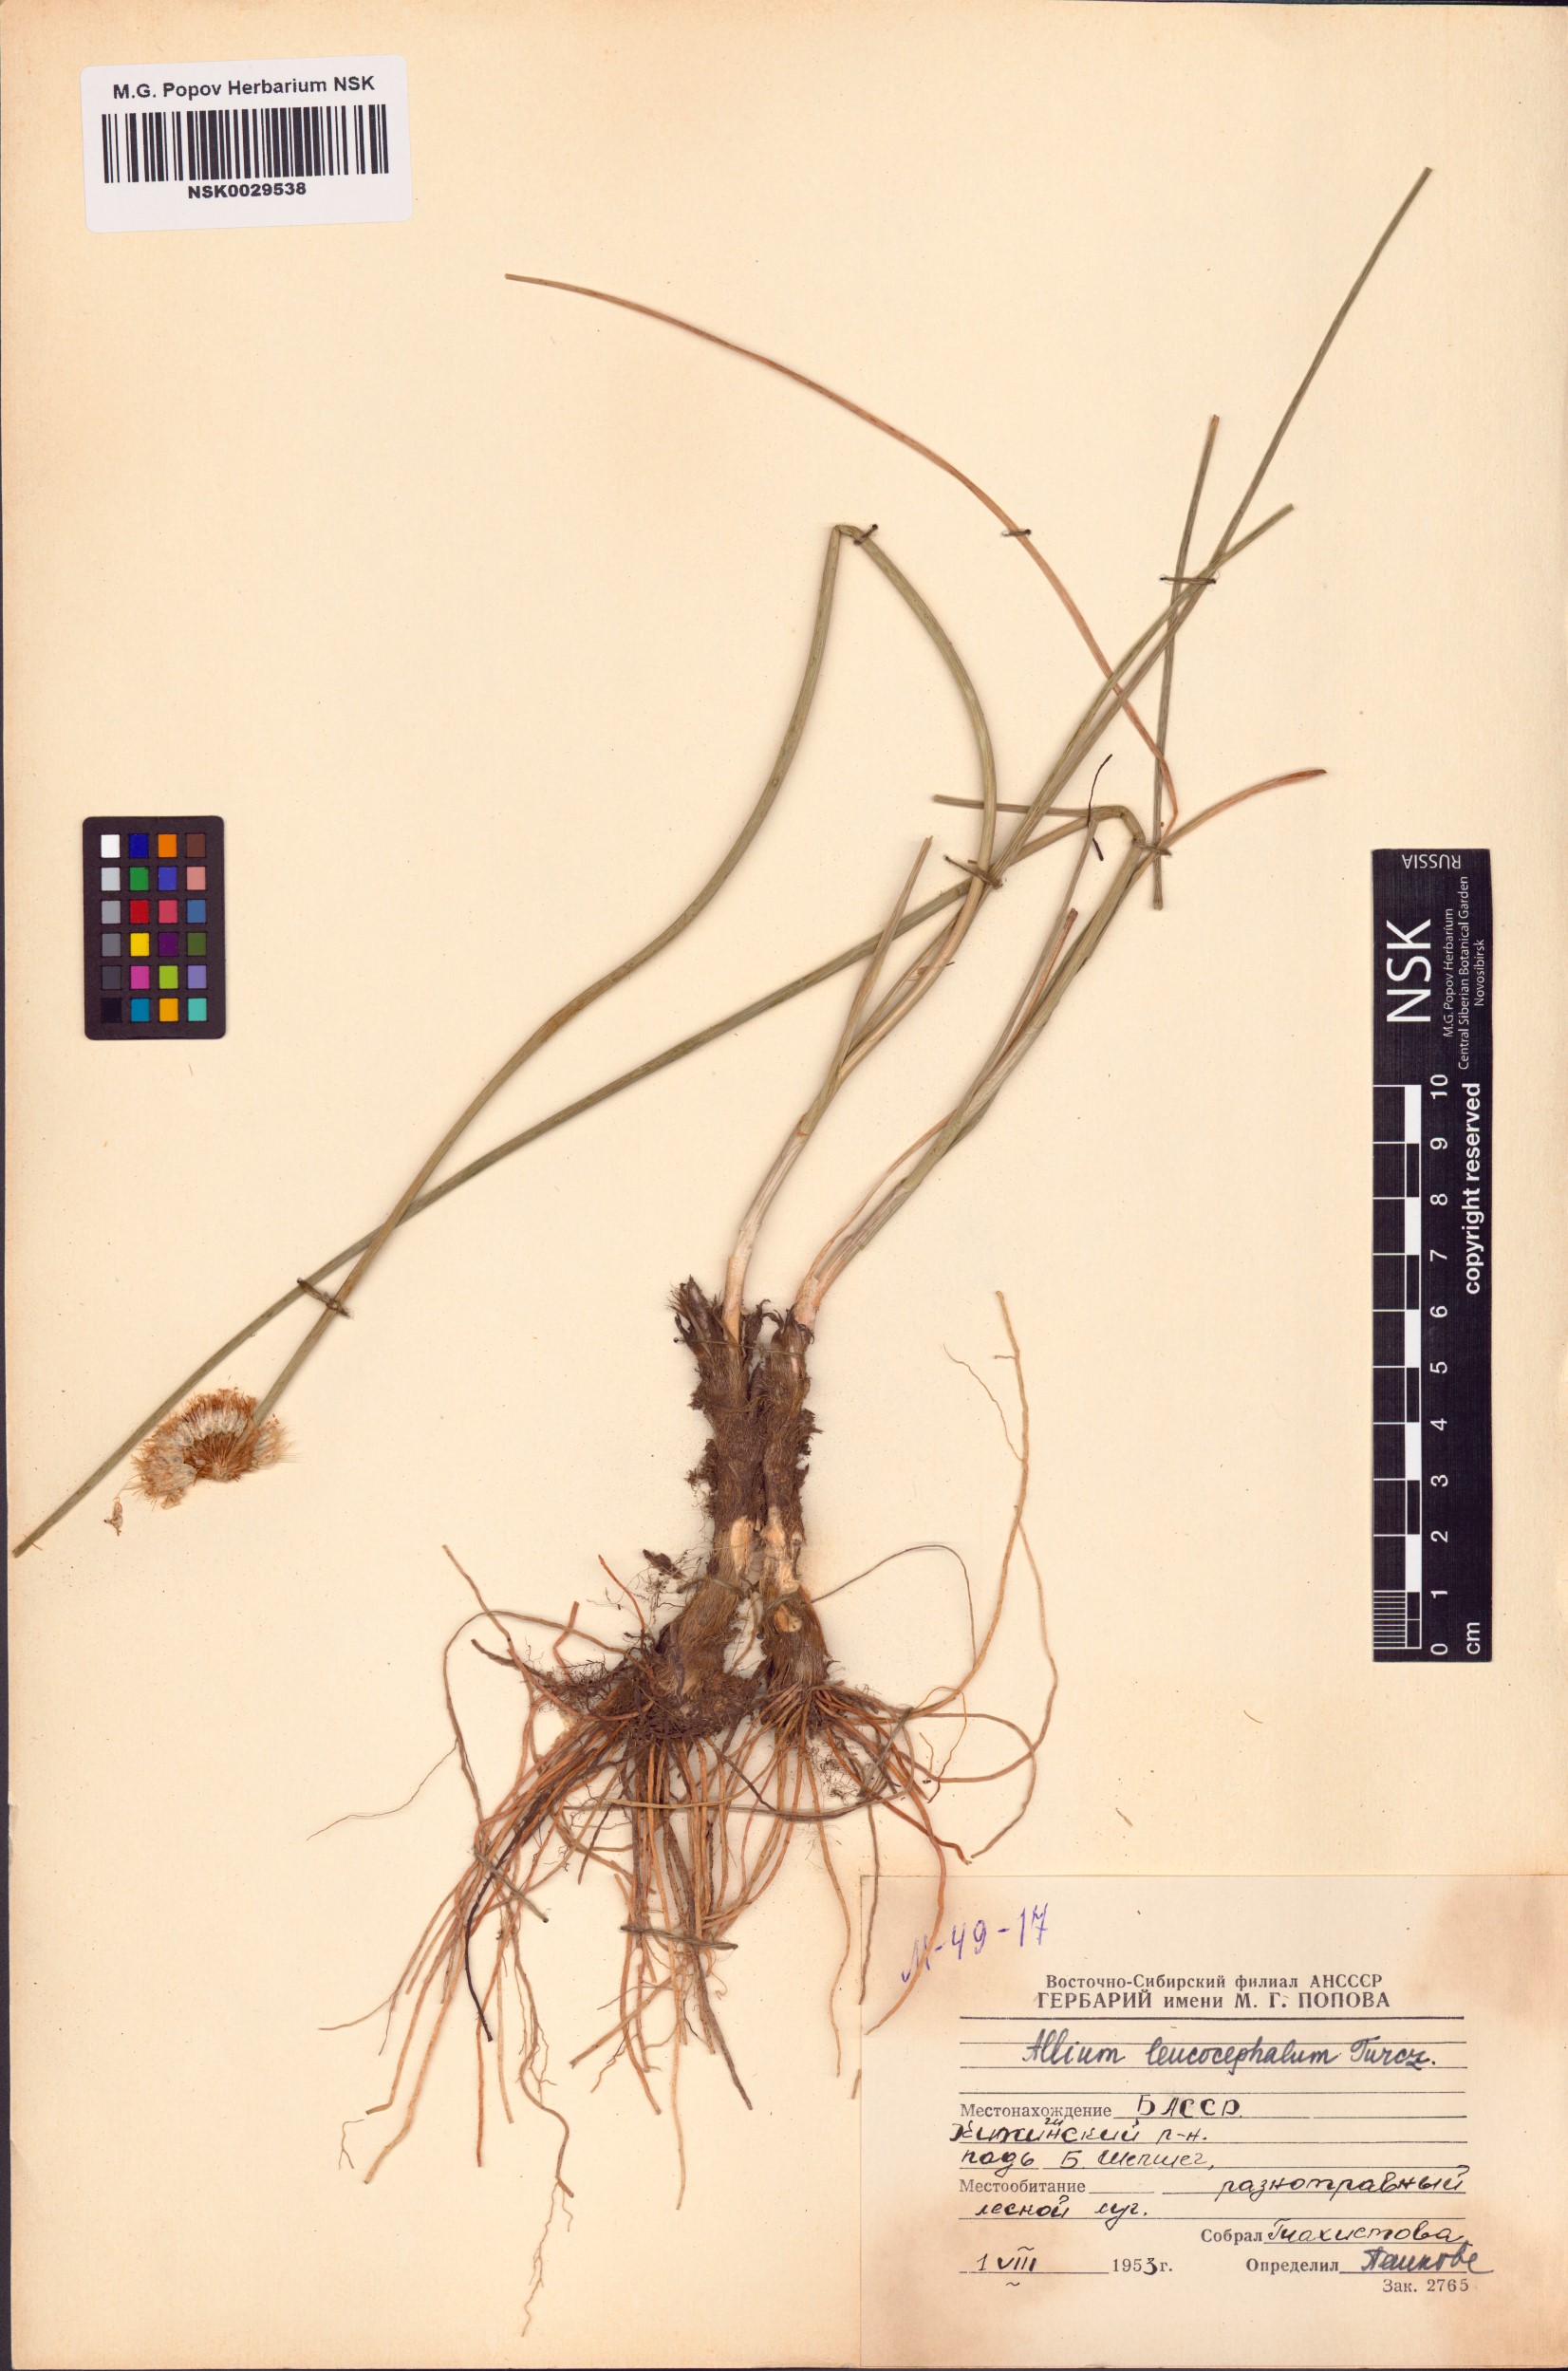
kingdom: Plantae
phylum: Tracheophyta
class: Liliopsida
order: Asparagales
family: Amaryllidaceae
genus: Allium
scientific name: Allium leucocephalum
